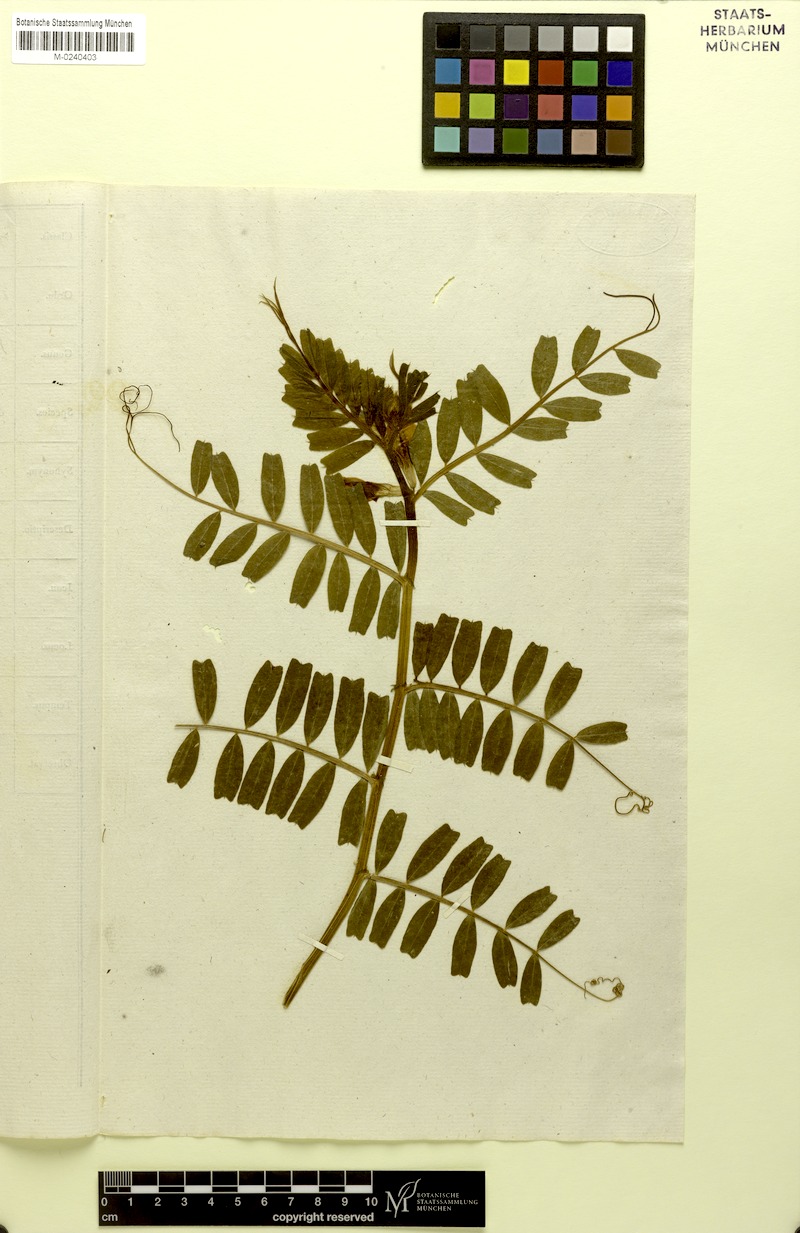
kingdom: Plantae
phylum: Tracheophyta
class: Magnoliopsida
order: Fabales
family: Fabaceae
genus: Vicia
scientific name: Vicia sativa
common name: Garden vetch
